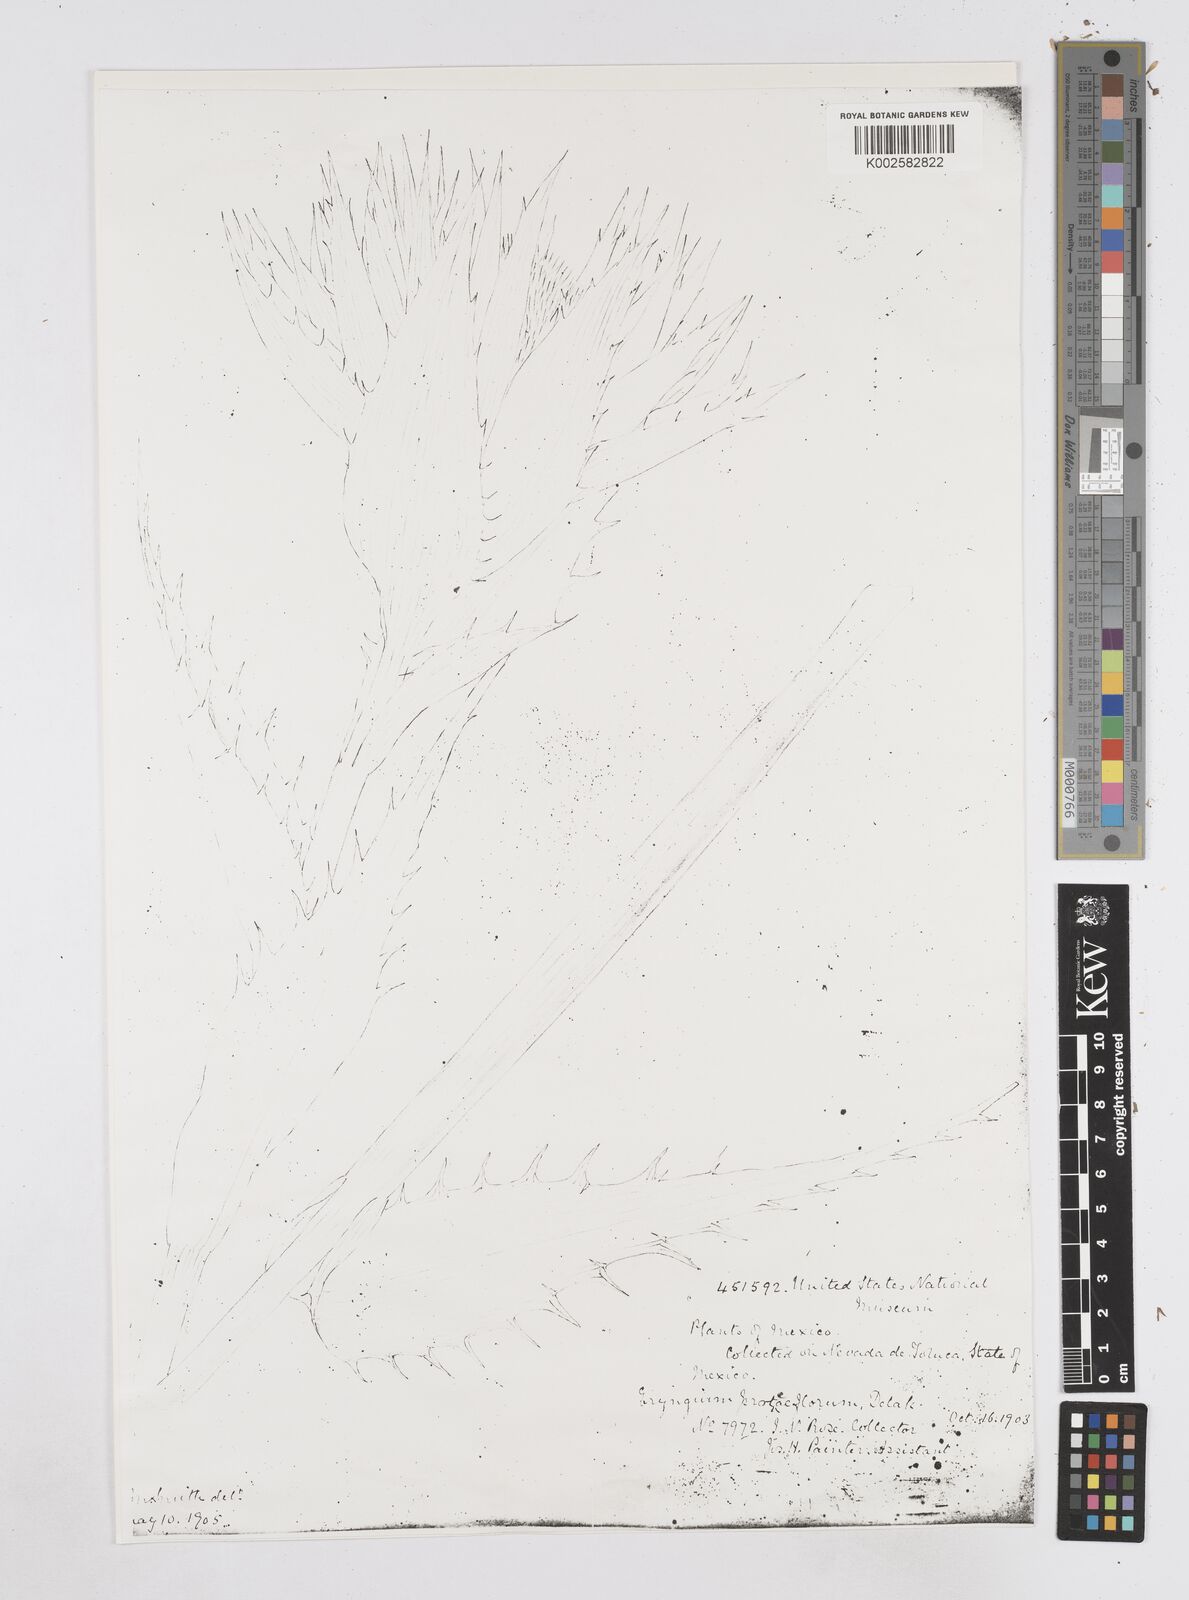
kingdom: Plantae
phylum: Tracheophyta
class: Magnoliopsida
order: Apiales
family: Apiaceae
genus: Eryngium
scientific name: Eryngium proteiflorum
